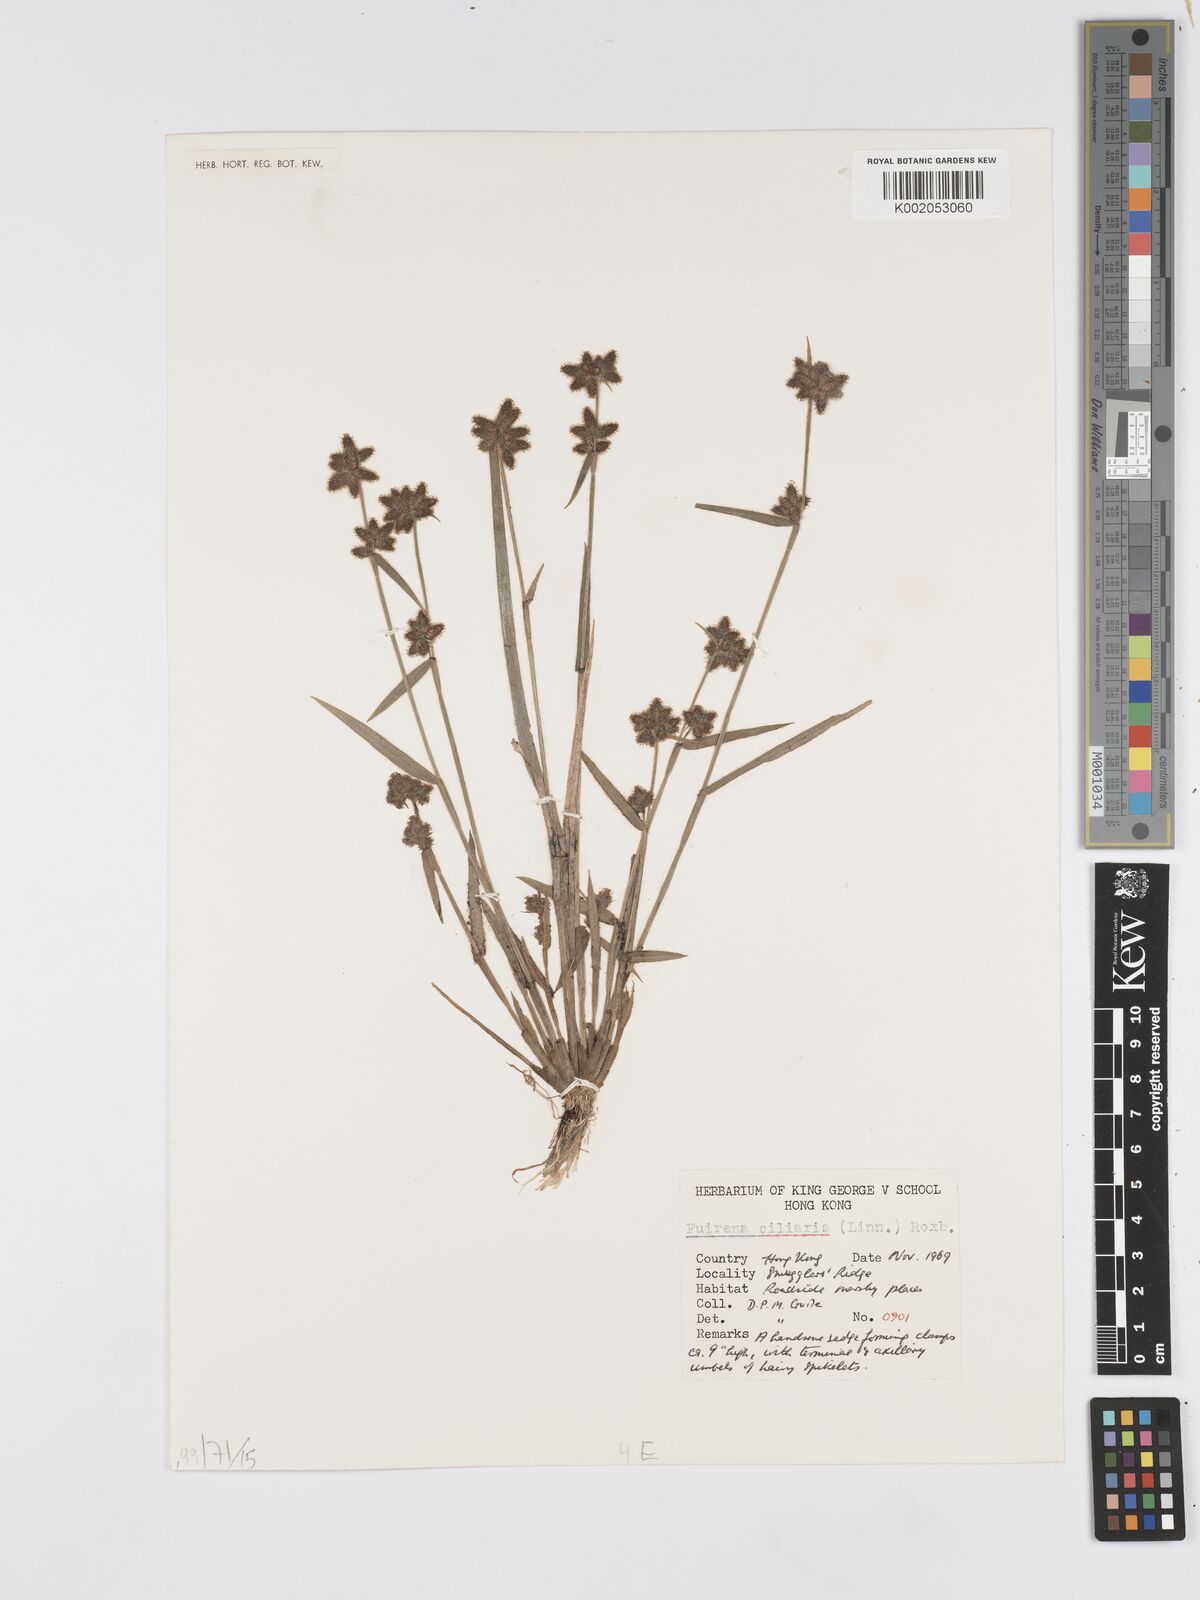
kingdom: Plantae
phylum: Tracheophyta
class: Liliopsida
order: Poales
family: Cyperaceae
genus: Fuirena
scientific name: Fuirena ciliaris
